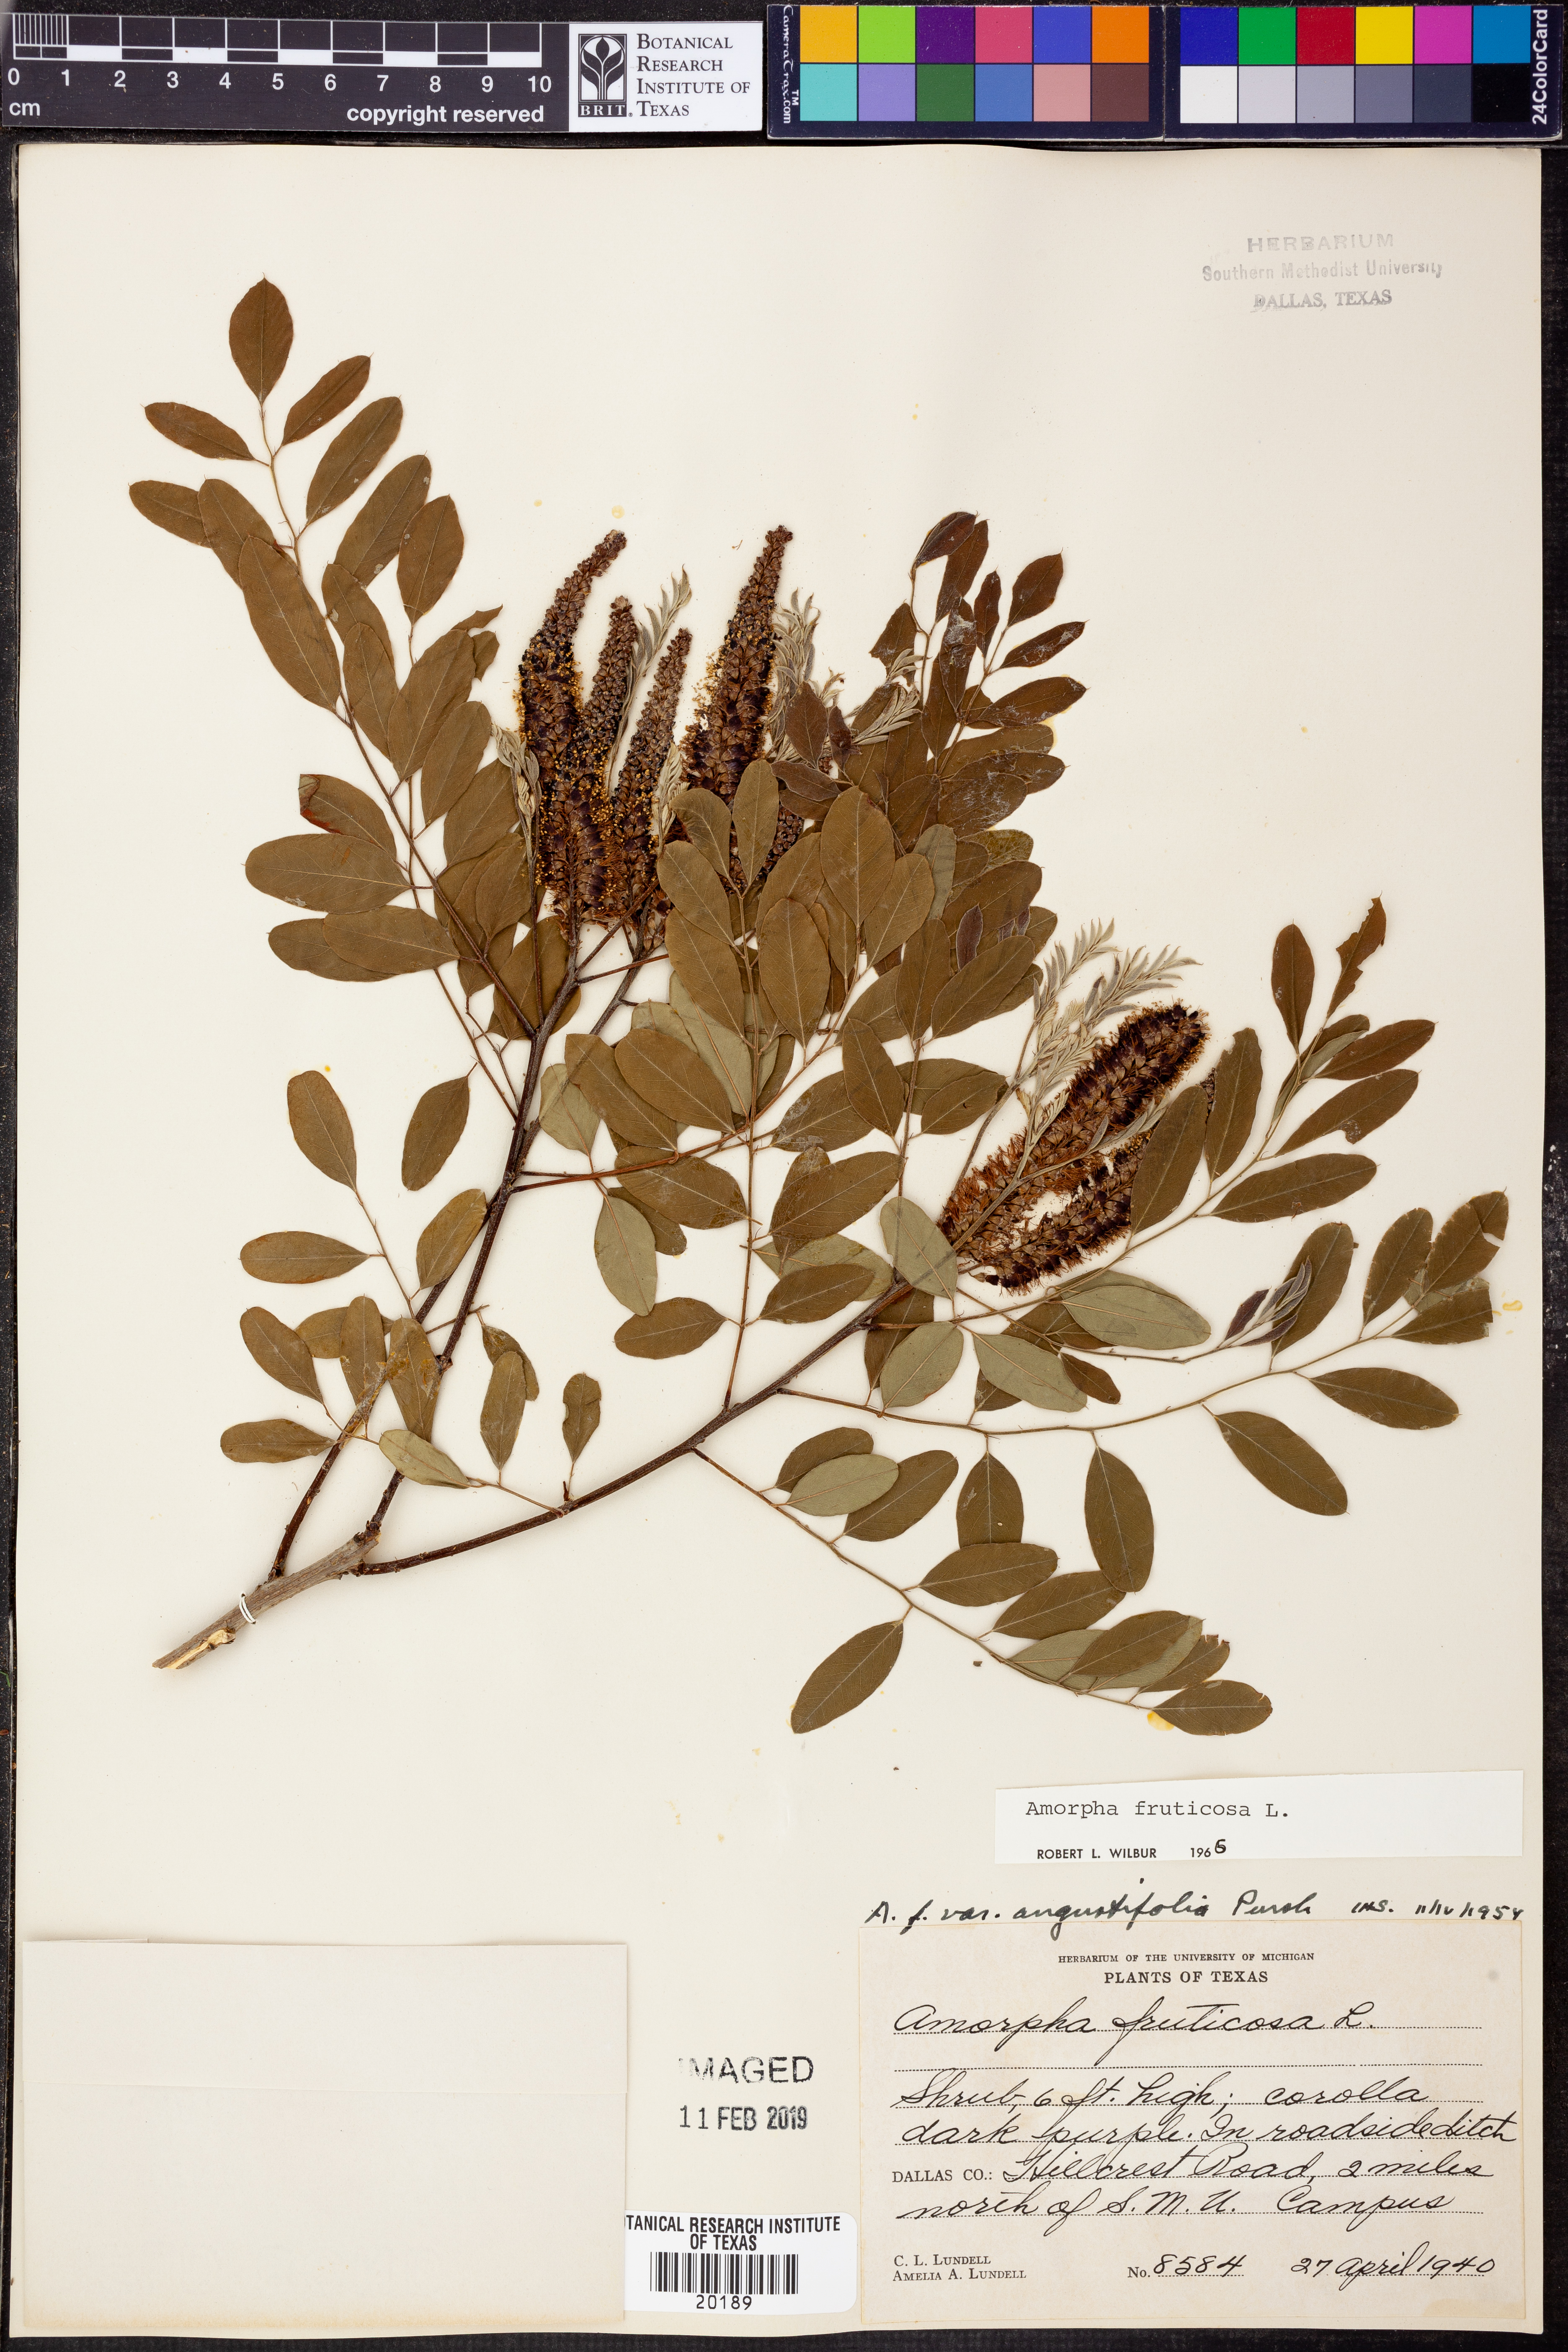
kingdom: Plantae
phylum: Tracheophyta
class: Magnoliopsida
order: Fabales
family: Fabaceae
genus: Amorpha
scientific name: Amorpha fruticosa
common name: False indigo
